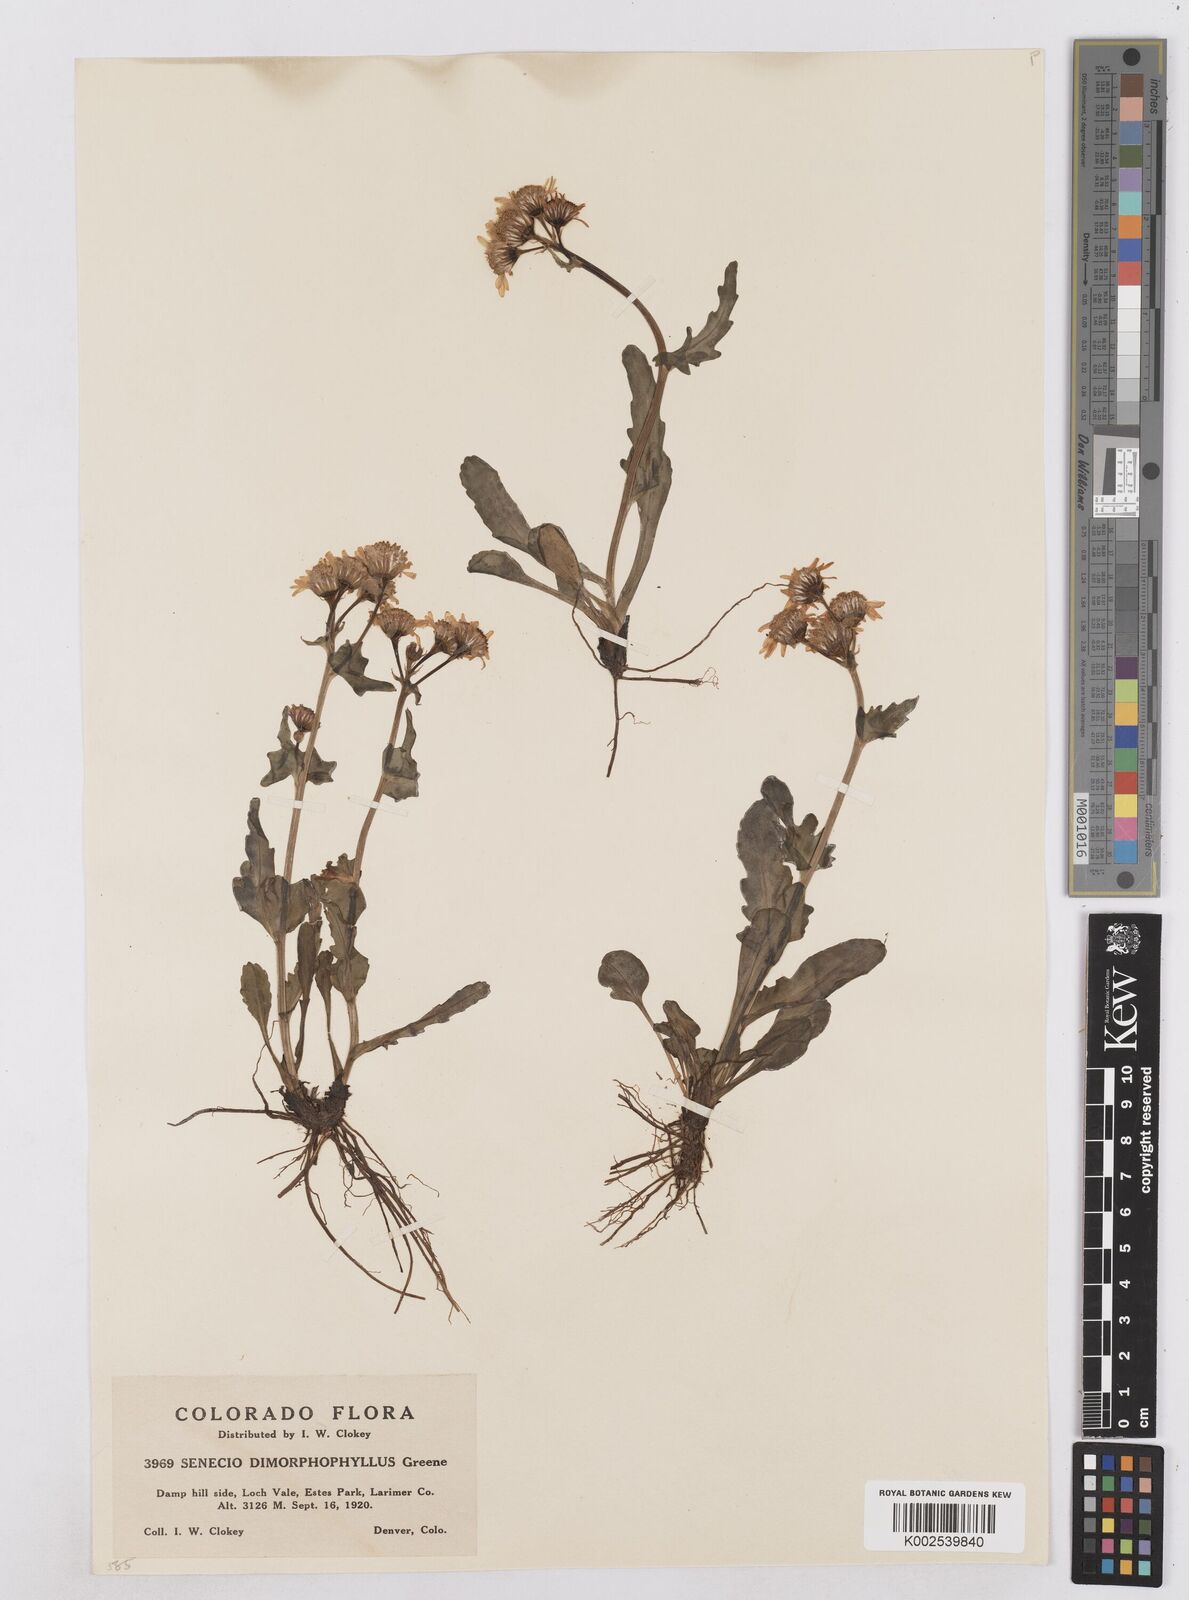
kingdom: Plantae
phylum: Tracheophyta
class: Magnoliopsida
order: Asterales
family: Asteraceae
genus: Packera
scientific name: Packera dimorphophylla
